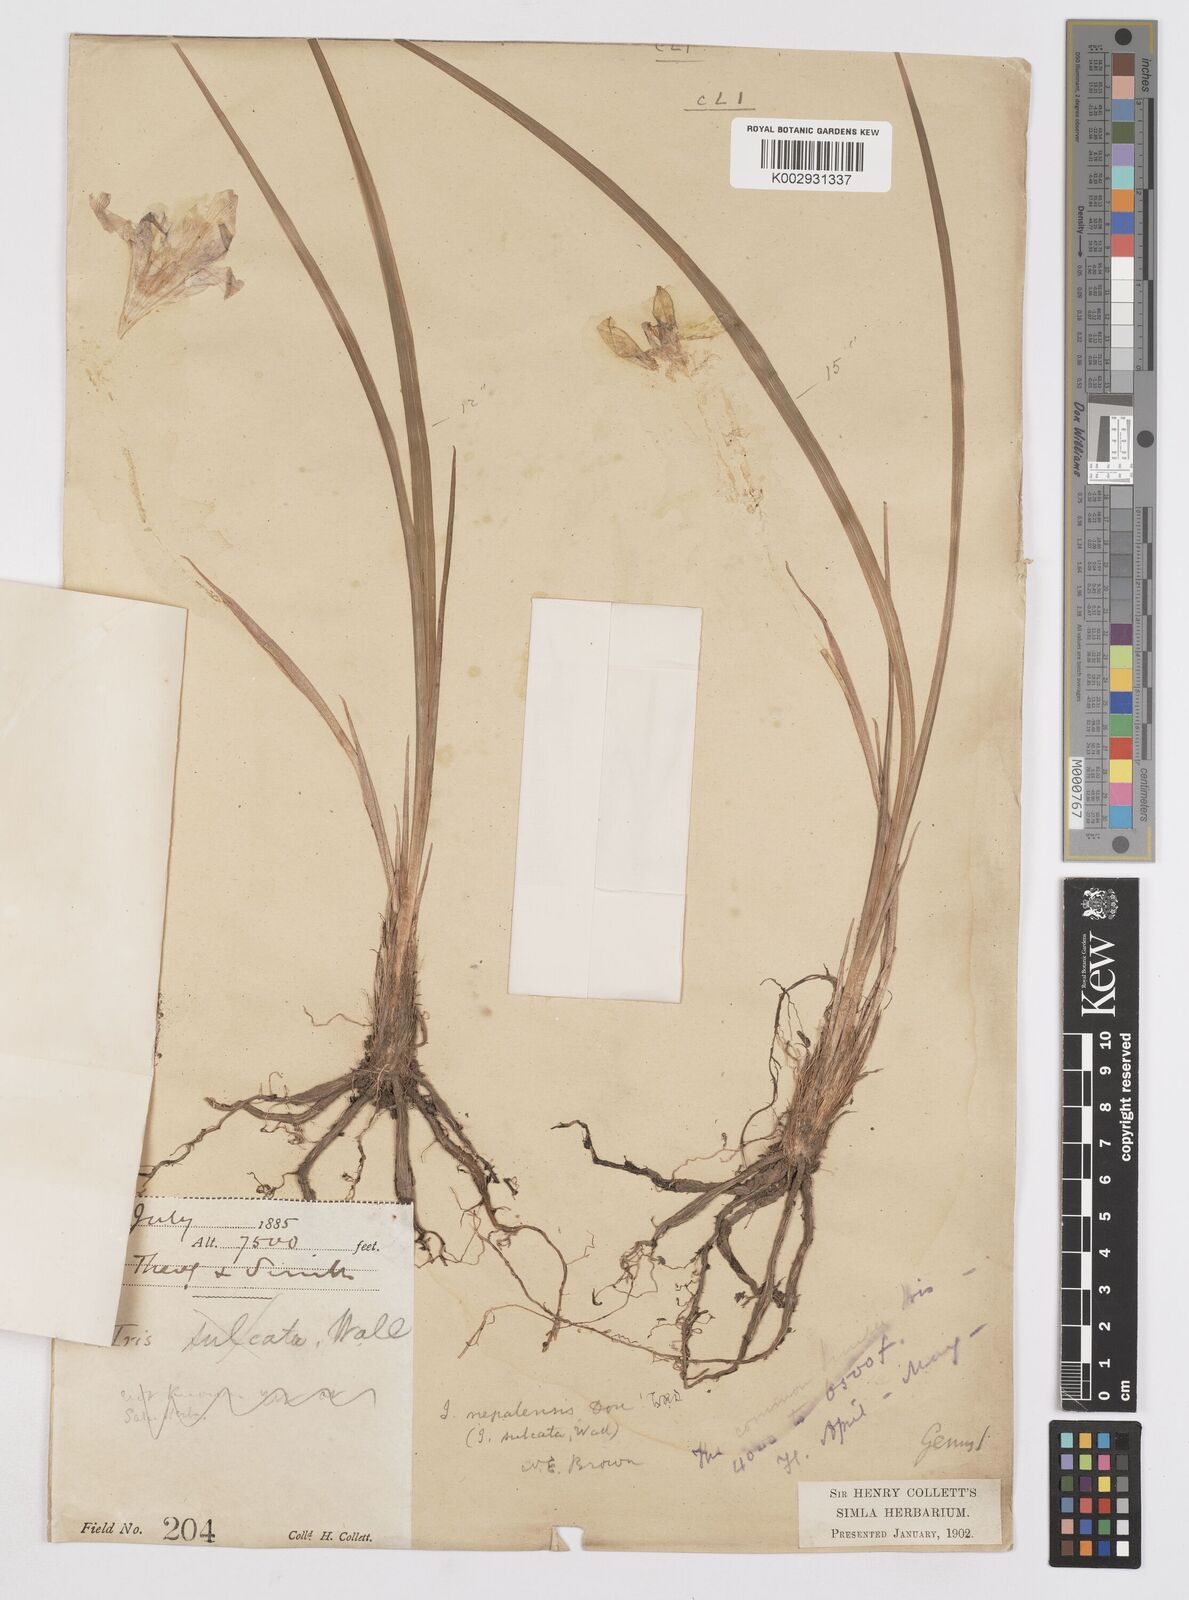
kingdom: Plantae
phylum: Tracheophyta
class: Liliopsida
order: Asparagales
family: Iridaceae
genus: Iris
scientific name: Iris decora
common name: Nepal iris
